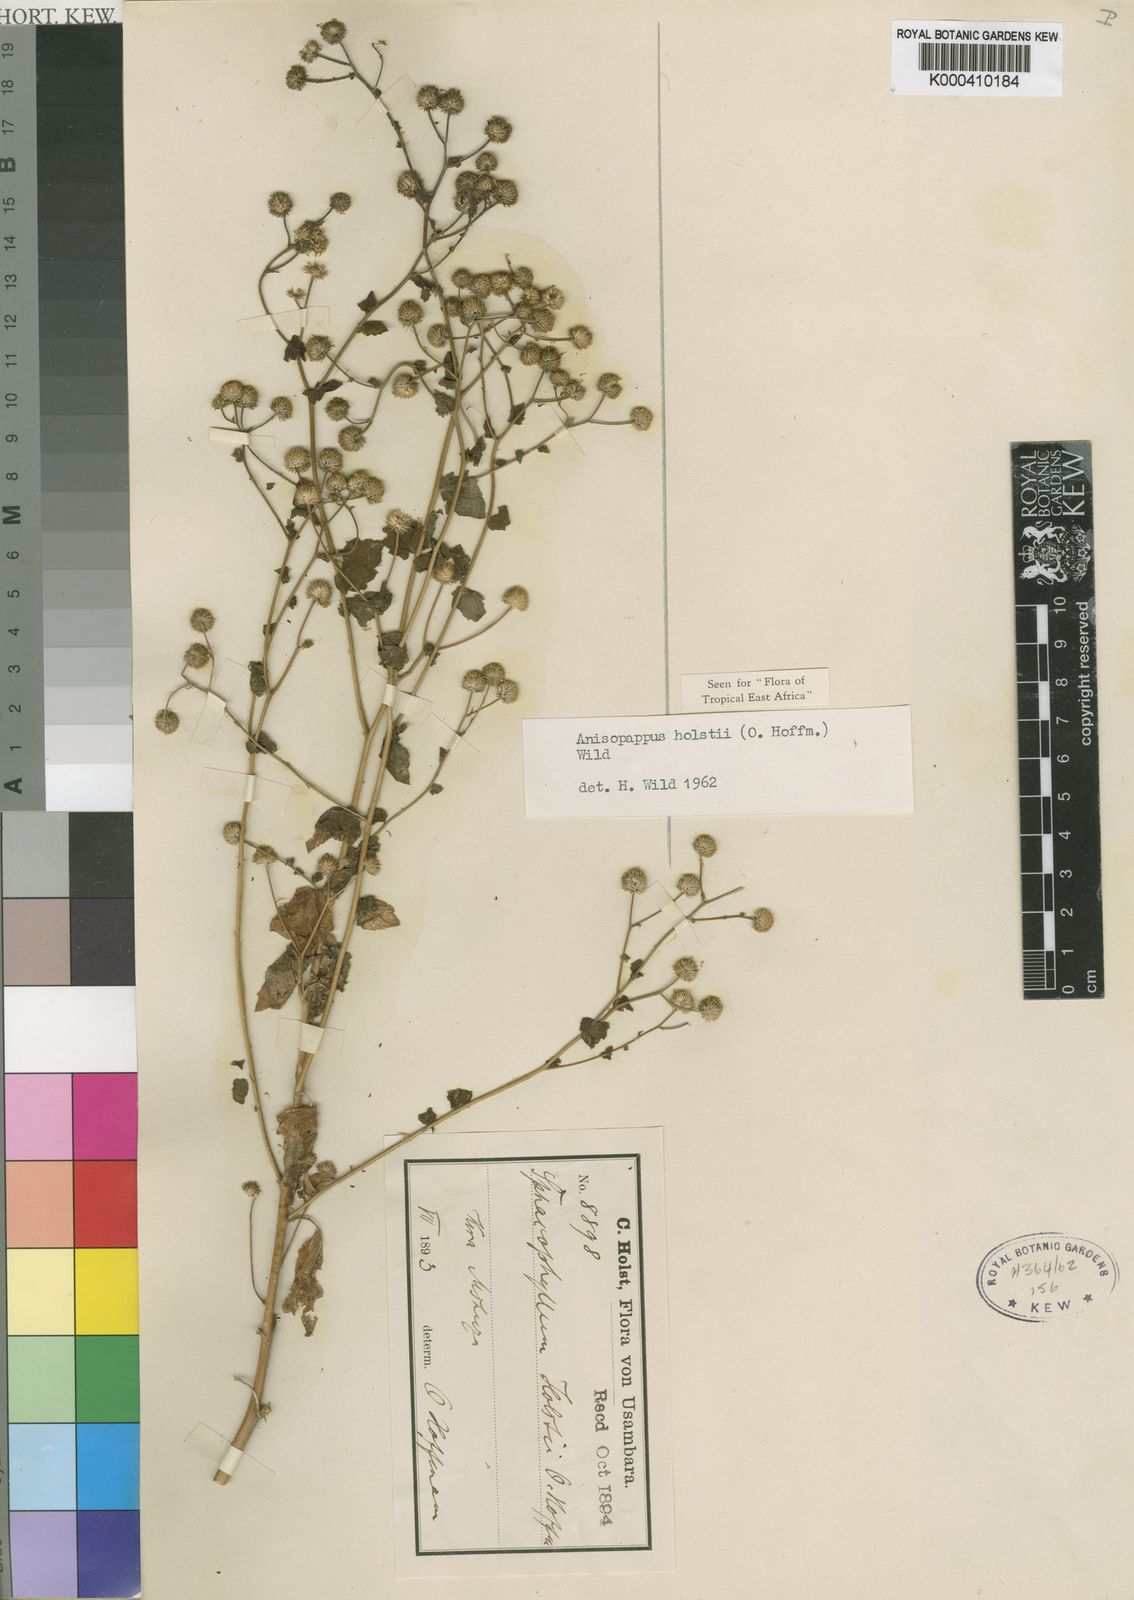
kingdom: Plantae
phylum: Tracheophyta
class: Magnoliopsida
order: Asterales
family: Asteraceae
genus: Anisopappus
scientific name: Anisopappus holstii
